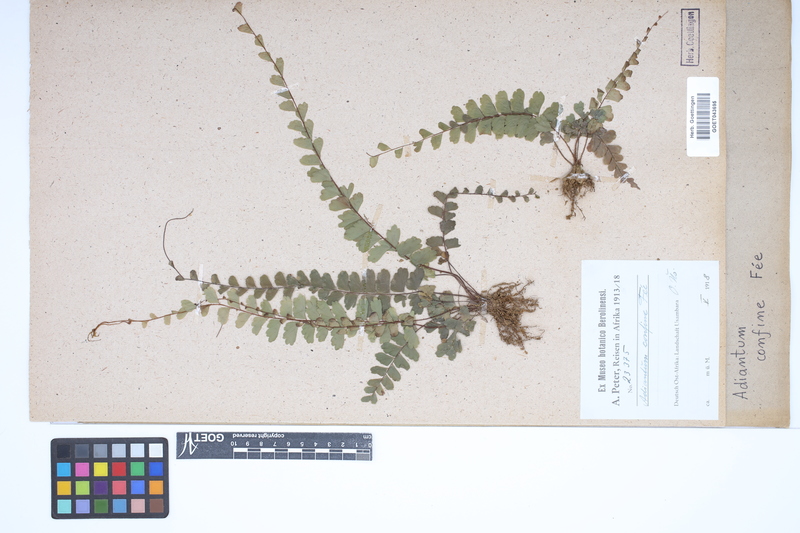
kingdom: Plantae
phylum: Tracheophyta
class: Polypodiopsida
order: Polypodiales
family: Pteridaceae
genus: Adiantum
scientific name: Adiantum confine
